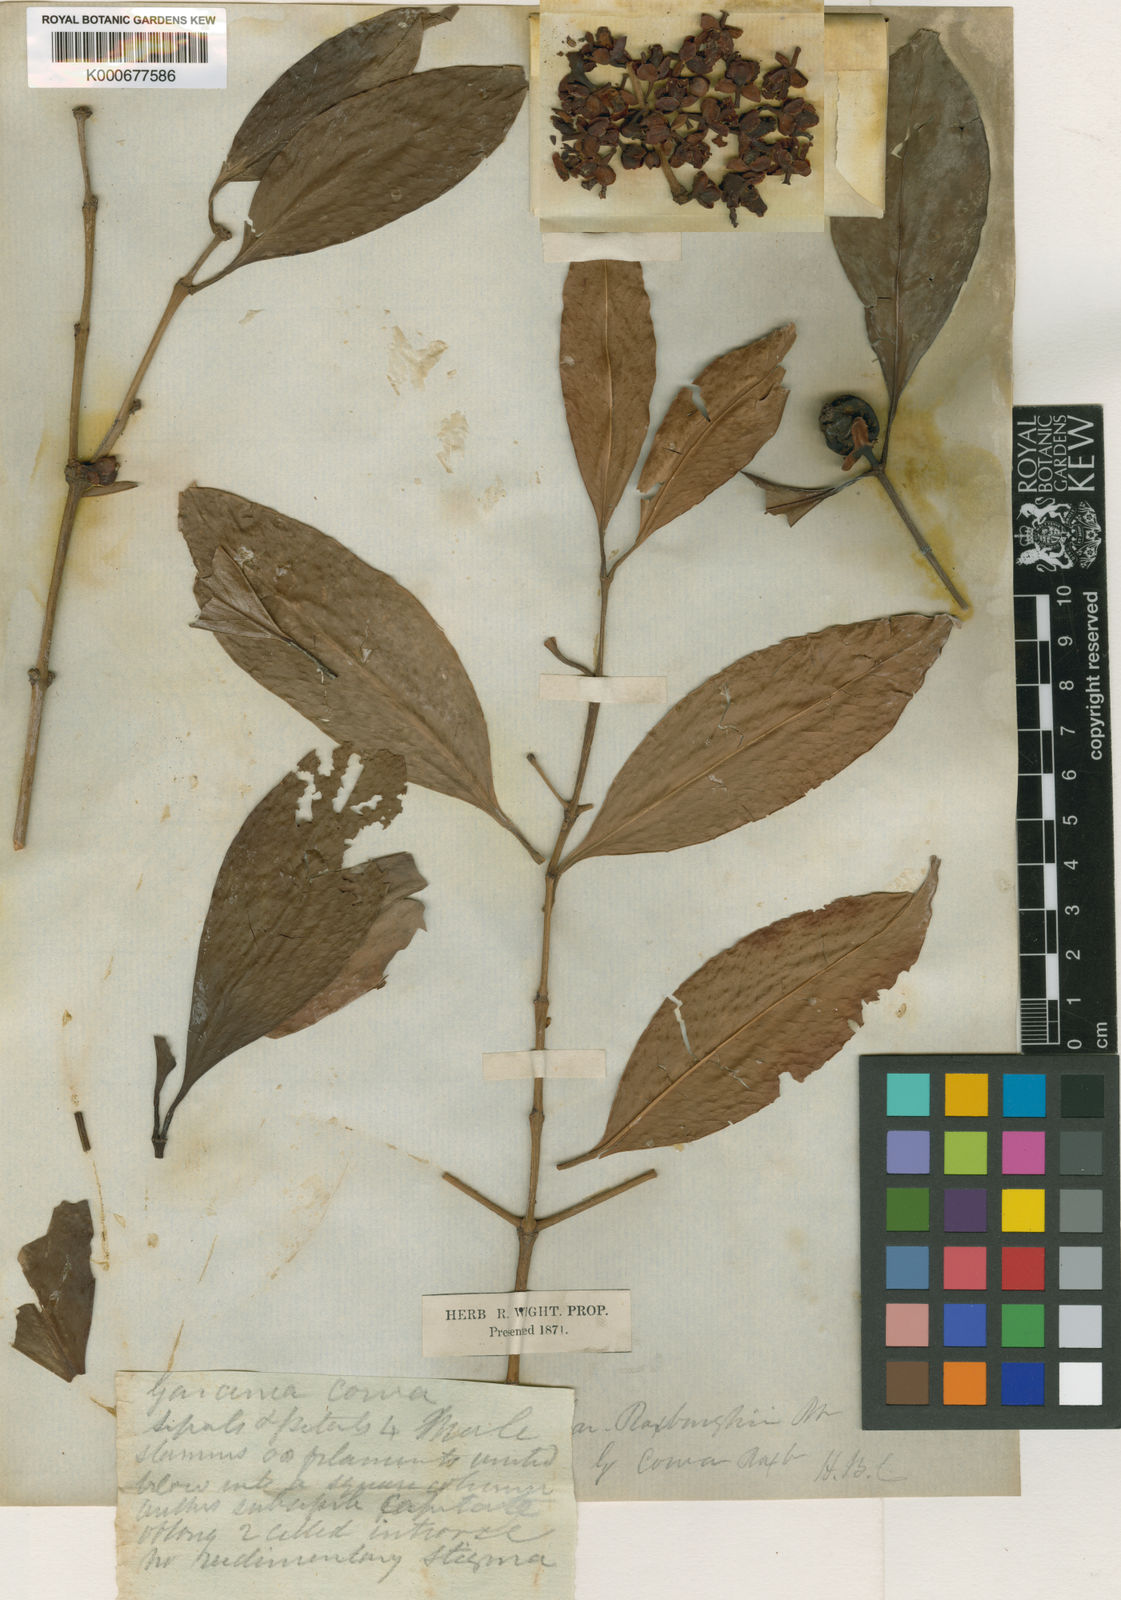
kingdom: Plantae
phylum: Tracheophyta
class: Magnoliopsida
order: Malpighiales
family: Clusiaceae
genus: Garcinia
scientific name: Garcinia
